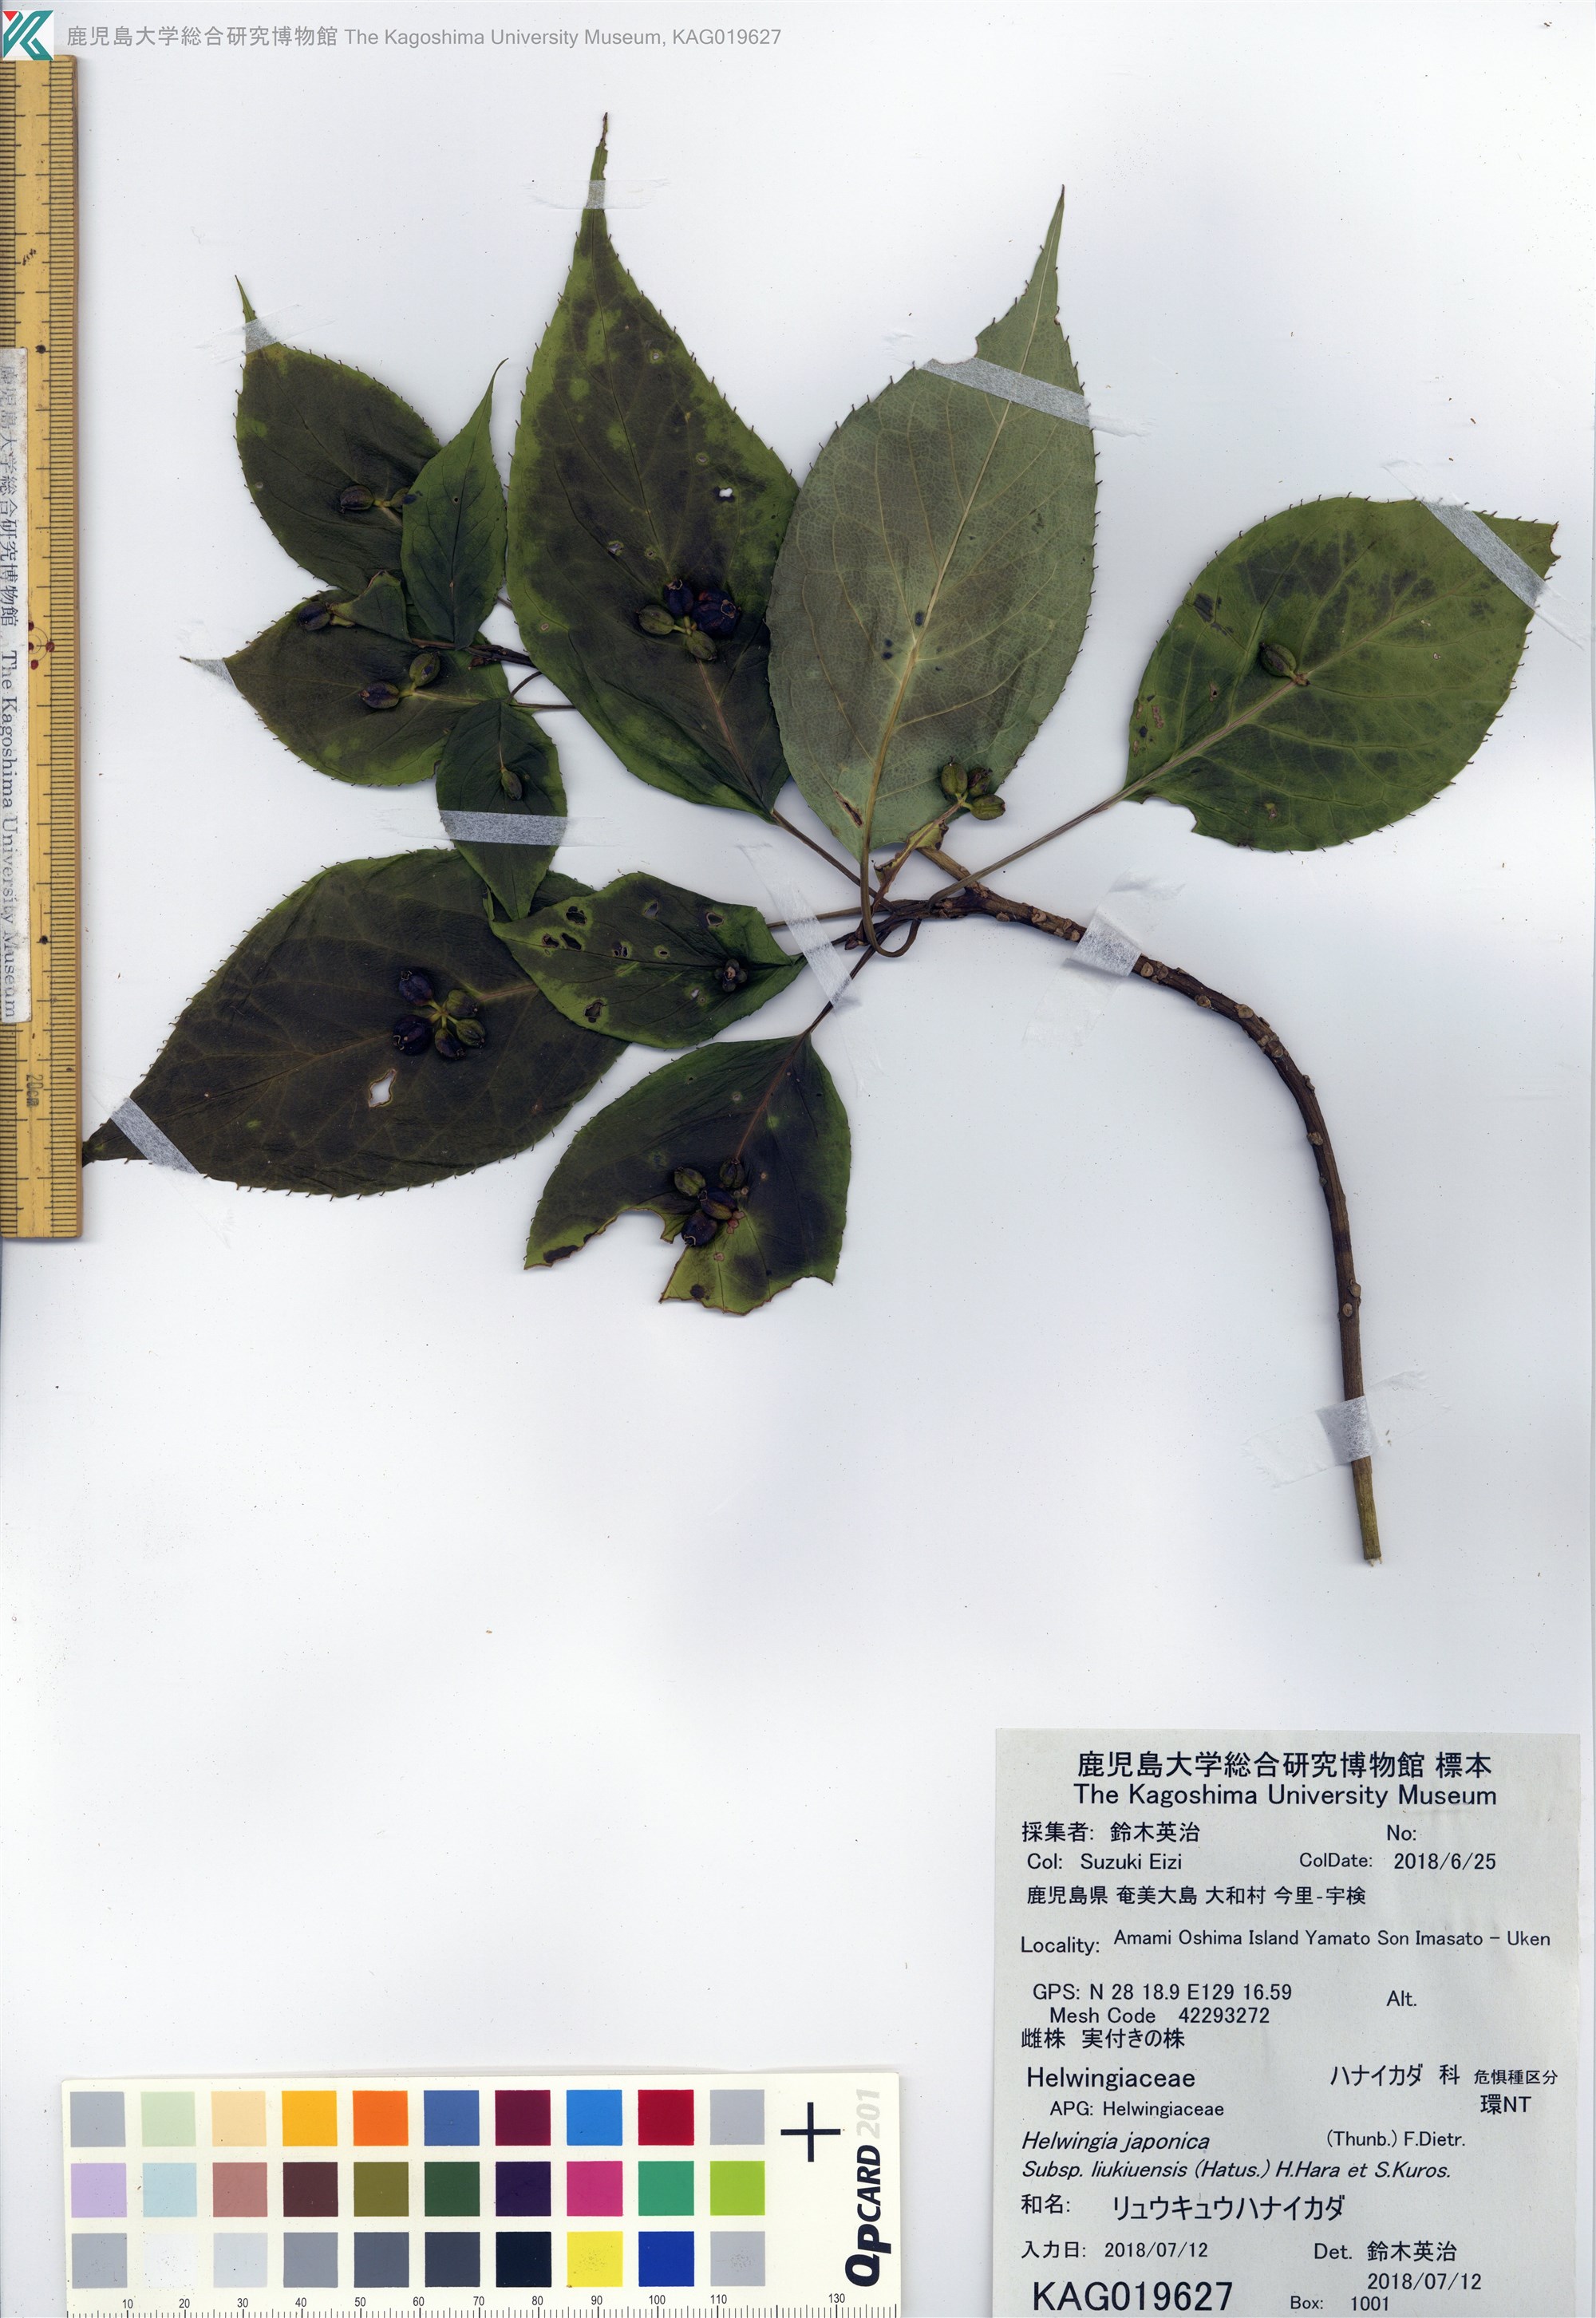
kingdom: Plantae
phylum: Tracheophyta
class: Magnoliopsida
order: Aquifoliales
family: Helwingiaceae
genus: Helwingia
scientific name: Helwingia japonica
